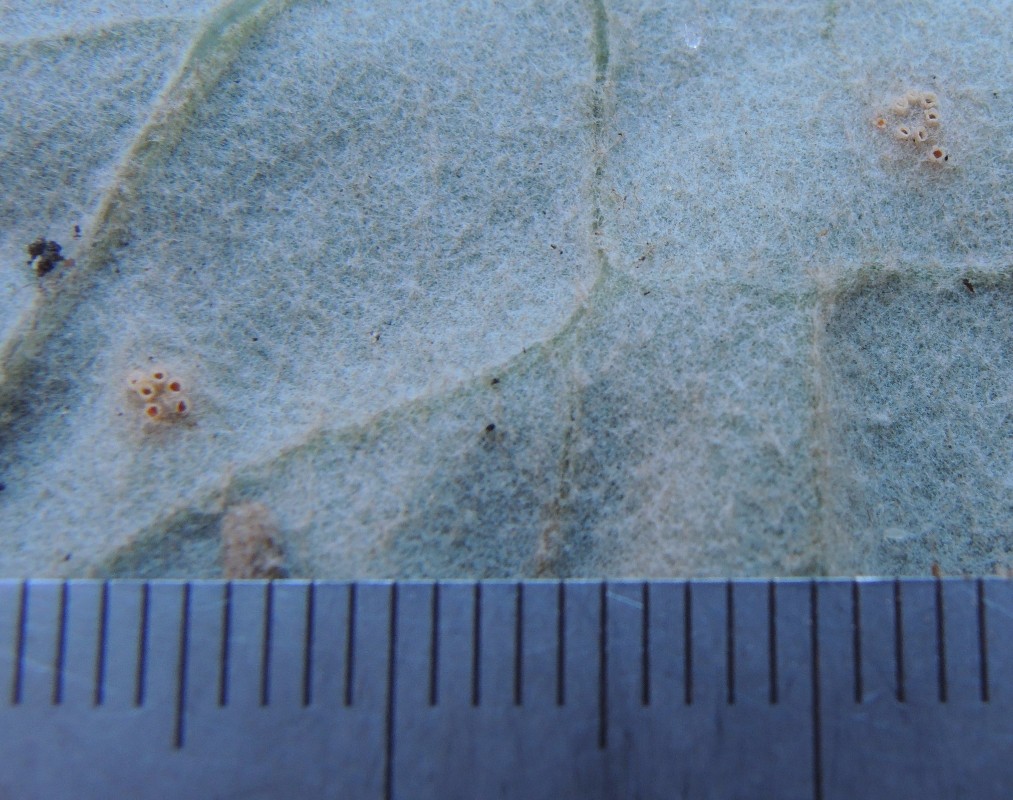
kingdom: Fungi
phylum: Basidiomycota
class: Pucciniomycetes
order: Pucciniales
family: Pucciniaceae
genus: Puccinia
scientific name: Puccinia poarum
